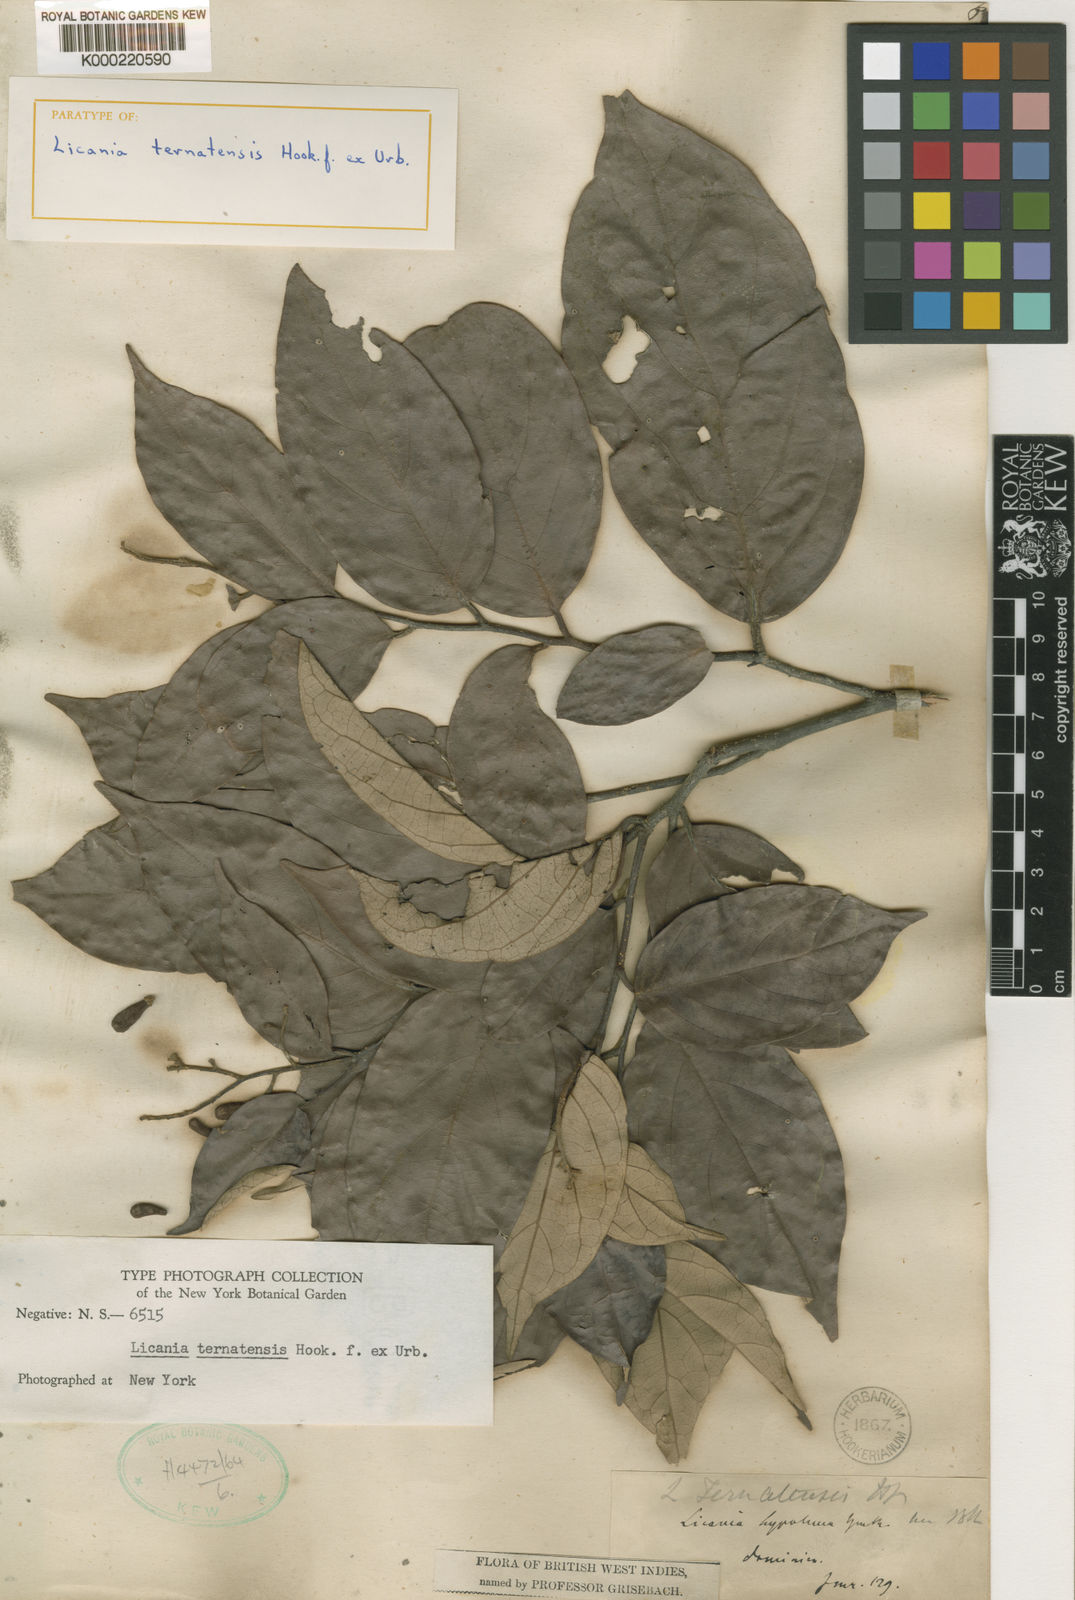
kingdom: Plantae
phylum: Tracheophyta
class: Magnoliopsida
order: Malpighiales
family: Chrysobalanaceae
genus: Licania
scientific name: Licania ternatensis
